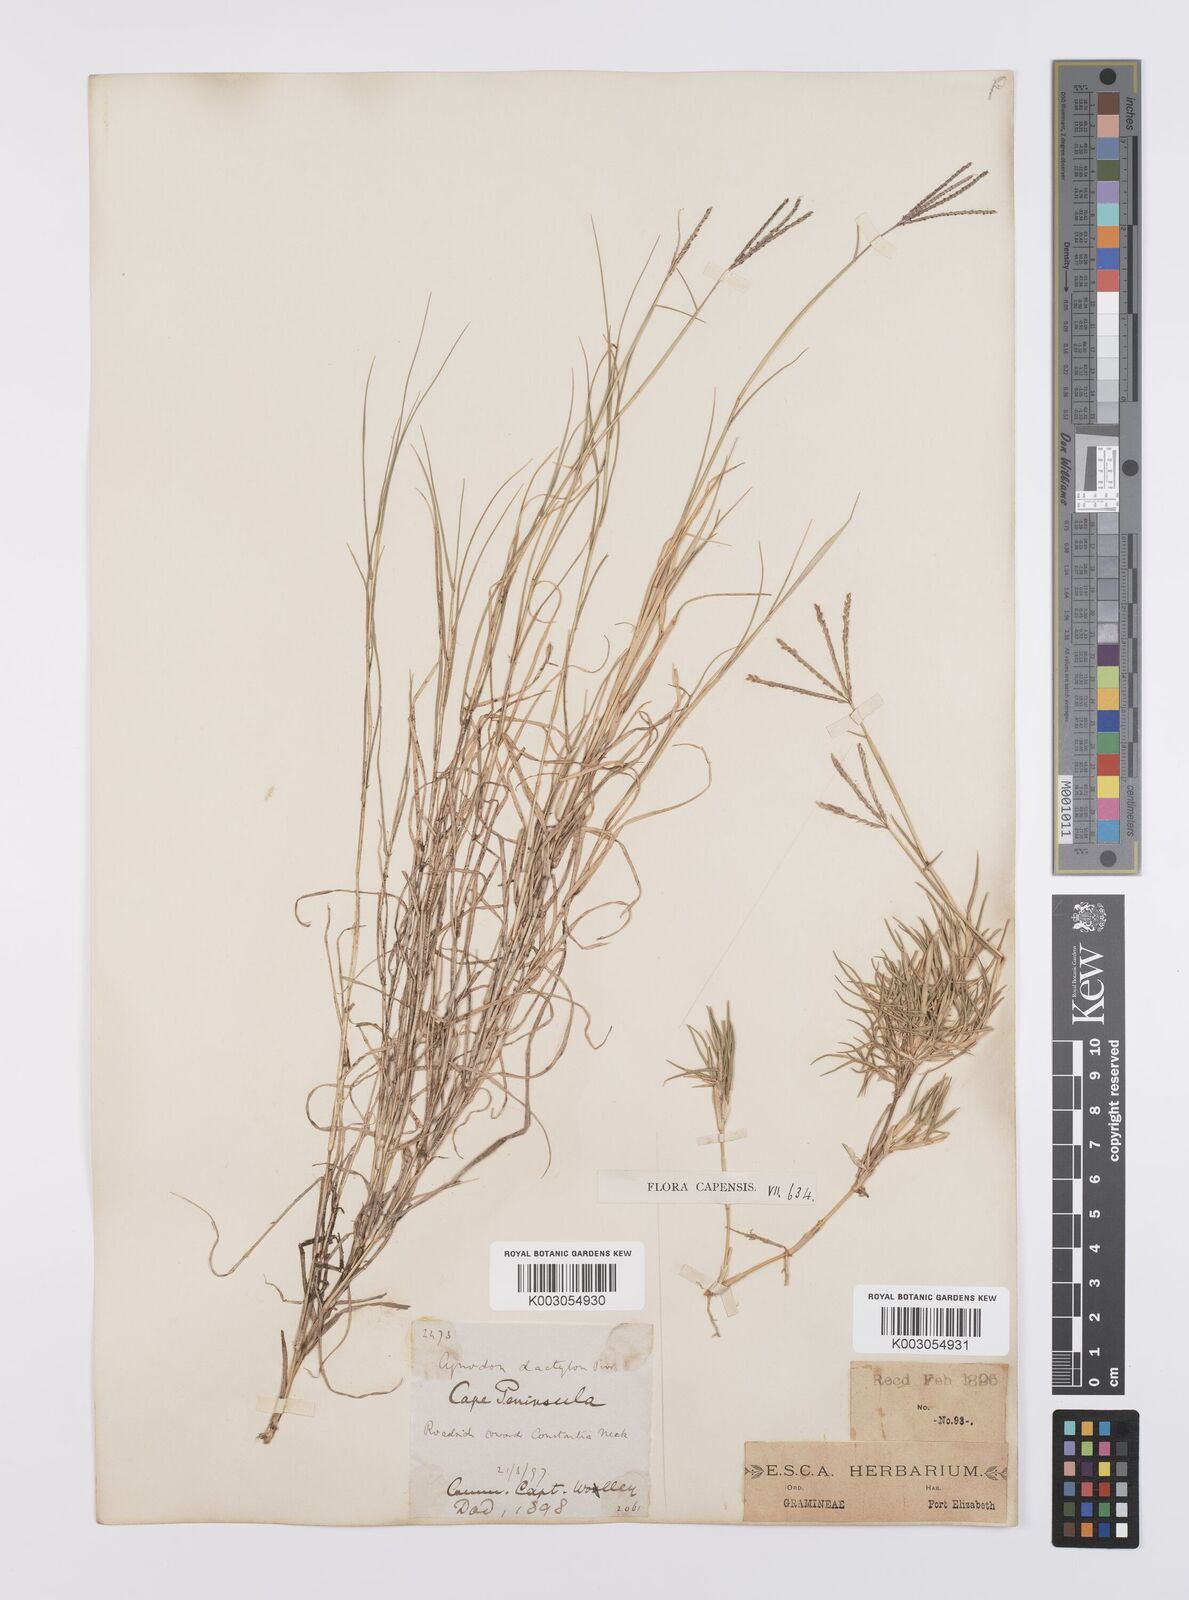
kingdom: Plantae
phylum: Tracheophyta
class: Liliopsida
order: Poales
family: Poaceae
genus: Cynodon
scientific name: Cynodon dactylon
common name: Bermuda grass
